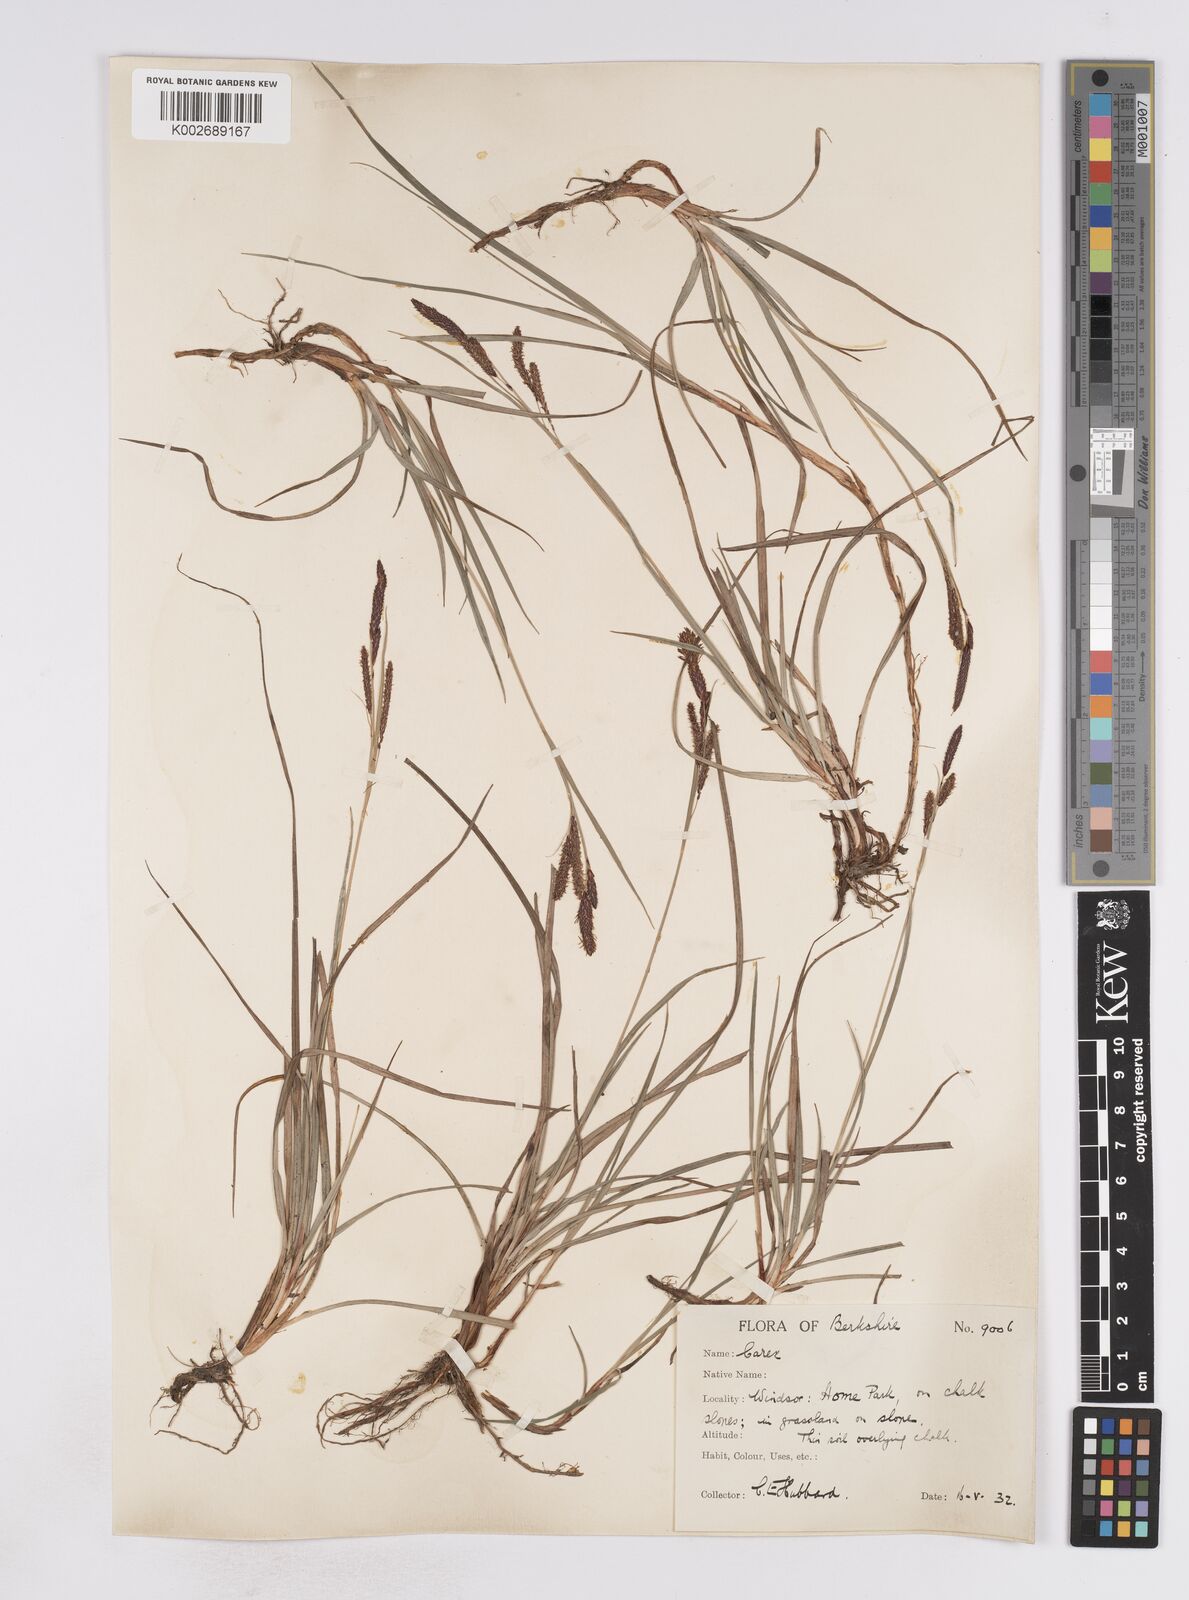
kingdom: Plantae
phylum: Tracheophyta
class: Liliopsida
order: Poales
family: Cyperaceae
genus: Carex
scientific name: Carex flacca
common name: Glaucous sedge
